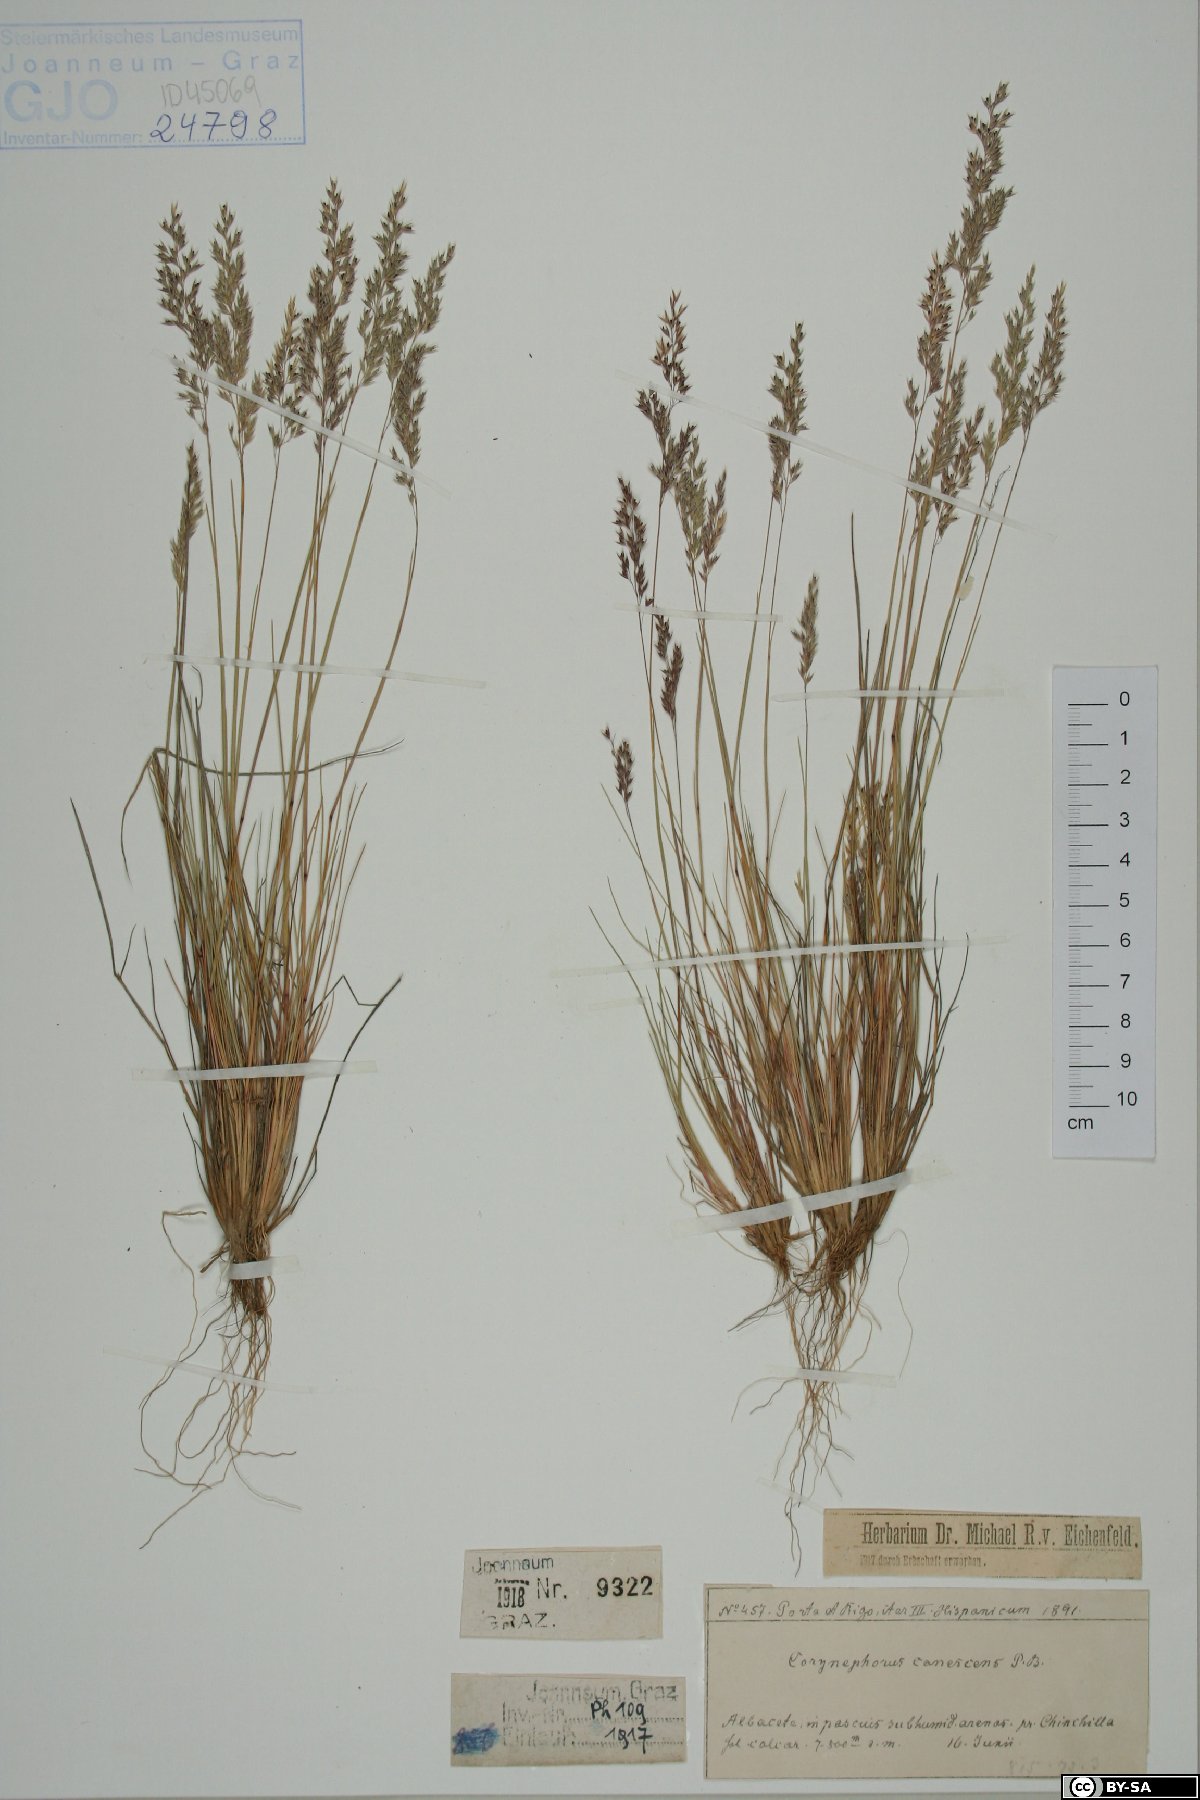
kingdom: Plantae
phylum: Tracheophyta
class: Liliopsida
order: Poales
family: Poaceae
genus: Corynephorus
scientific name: Corynephorus canescens
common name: Grey hair-grass
